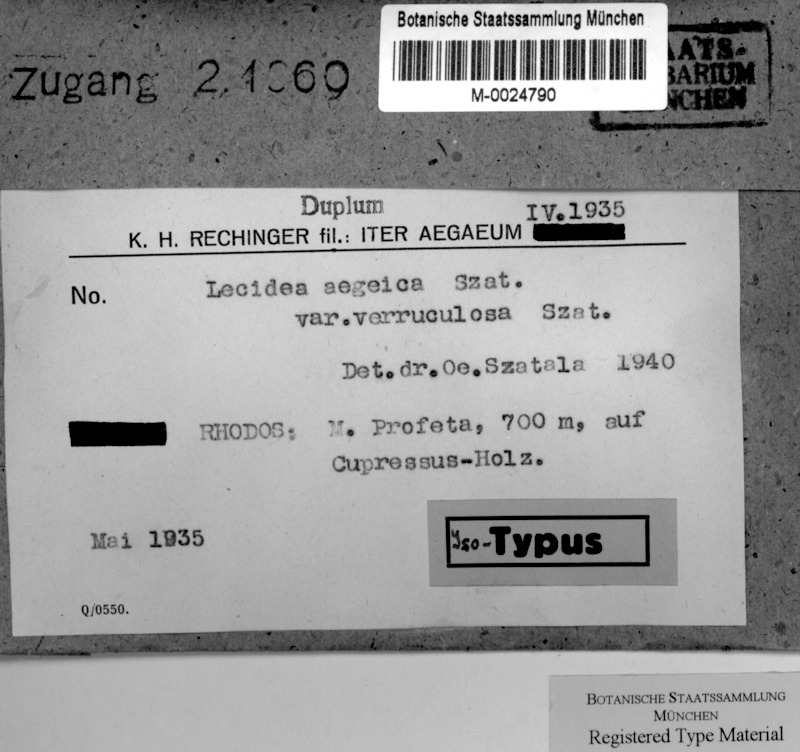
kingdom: Fungi
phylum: Ascomycota
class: Lecanoromycetes
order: Lecideales
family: Lecideaceae
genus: Lecidea
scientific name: Lecidea
